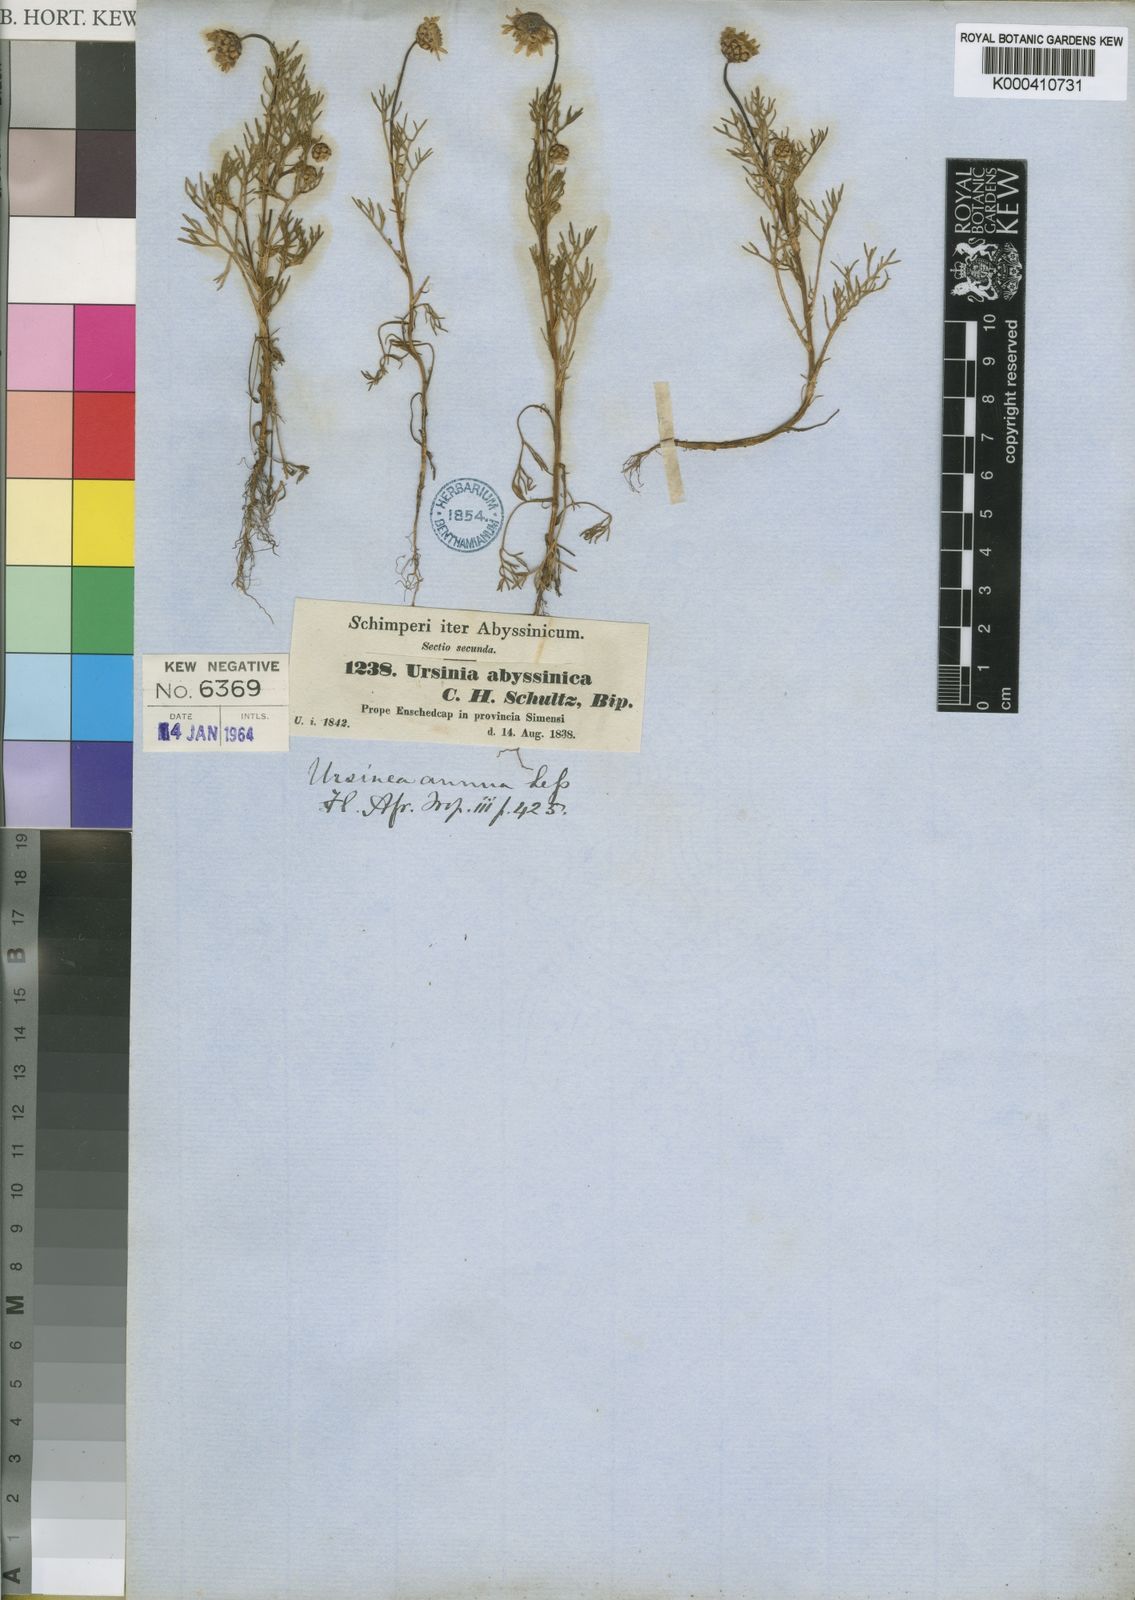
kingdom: Plantae
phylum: Tracheophyta
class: Magnoliopsida
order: Asterales
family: Asteraceae
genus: Ursinia
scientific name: Ursinia nana
